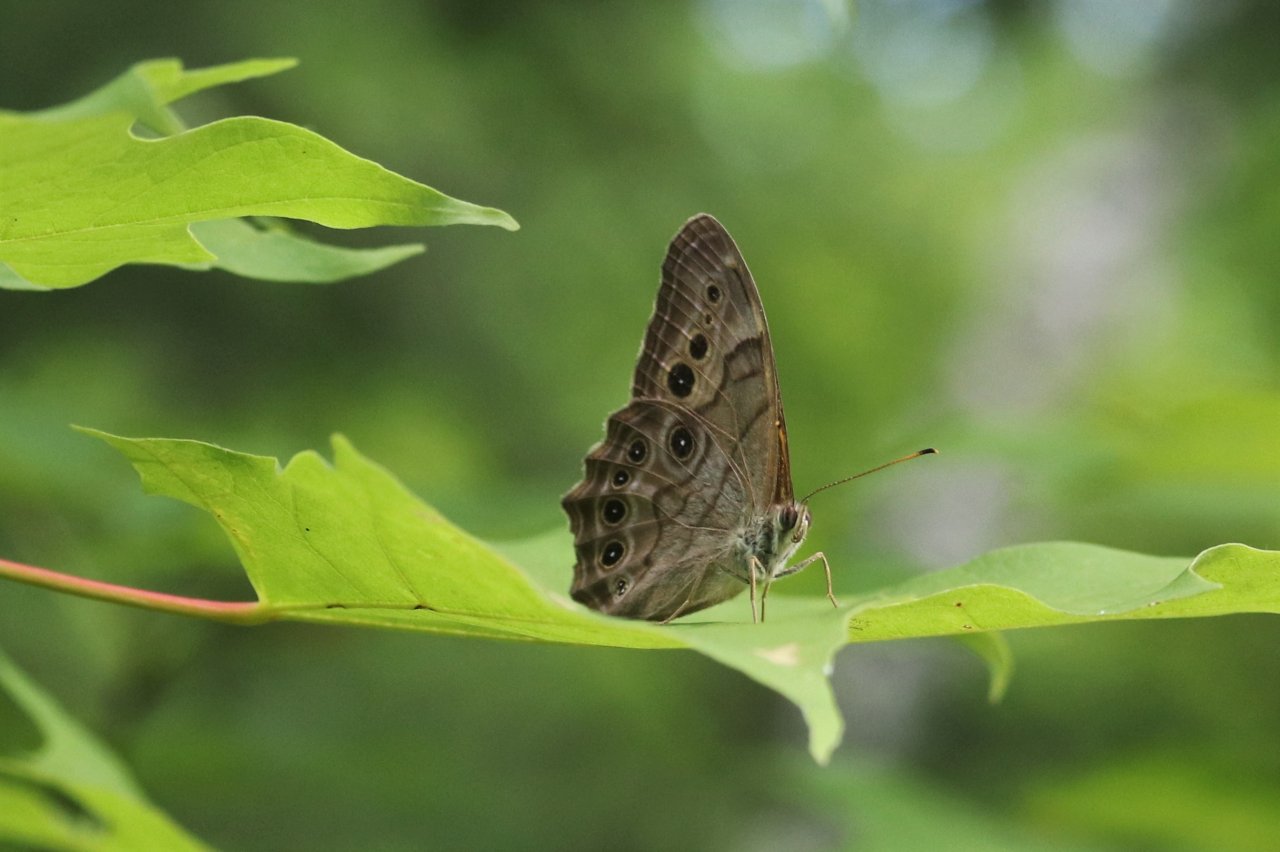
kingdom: Animalia
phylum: Arthropoda
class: Insecta
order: Lepidoptera
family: Nymphalidae
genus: Lethe
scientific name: Lethe anthedon
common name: Northern Pearly-Eye
